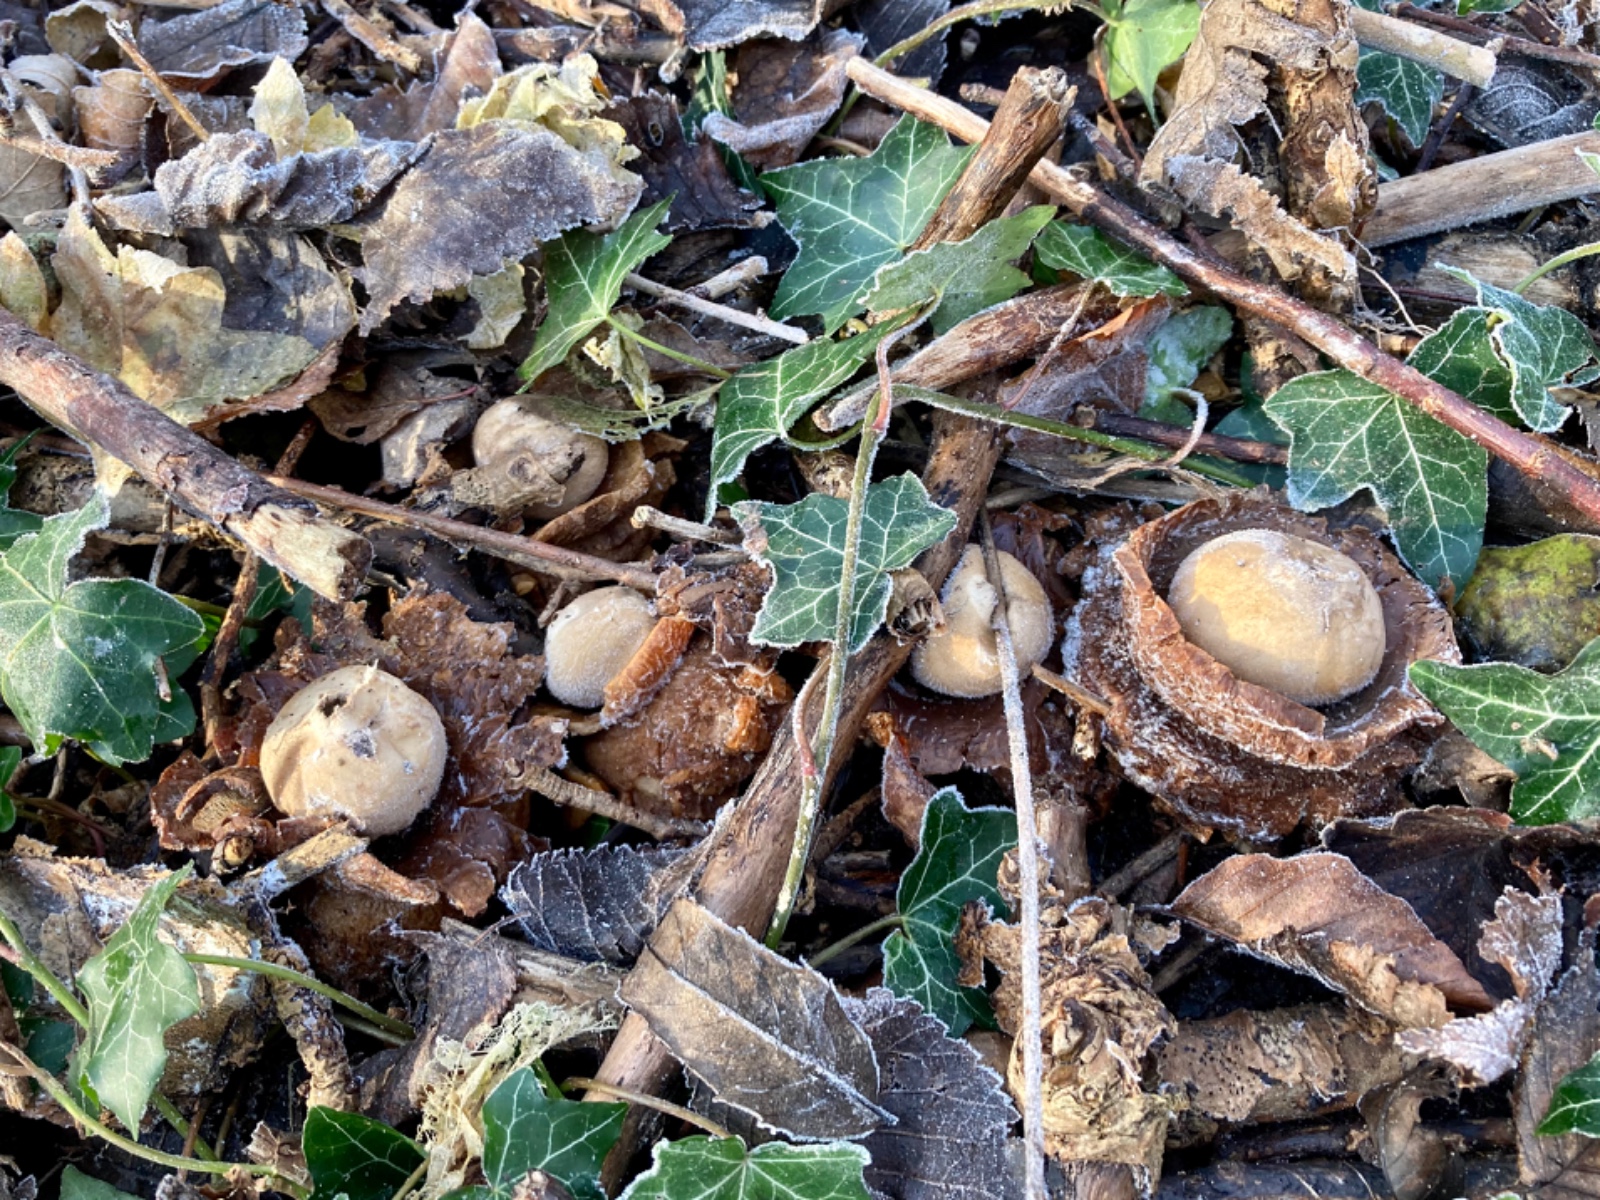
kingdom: Fungi
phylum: Basidiomycota
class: Agaricomycetes
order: Geastrales
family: Geastraceae
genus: Geastrum
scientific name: Geastrum michelianum
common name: kødet stjernebold
